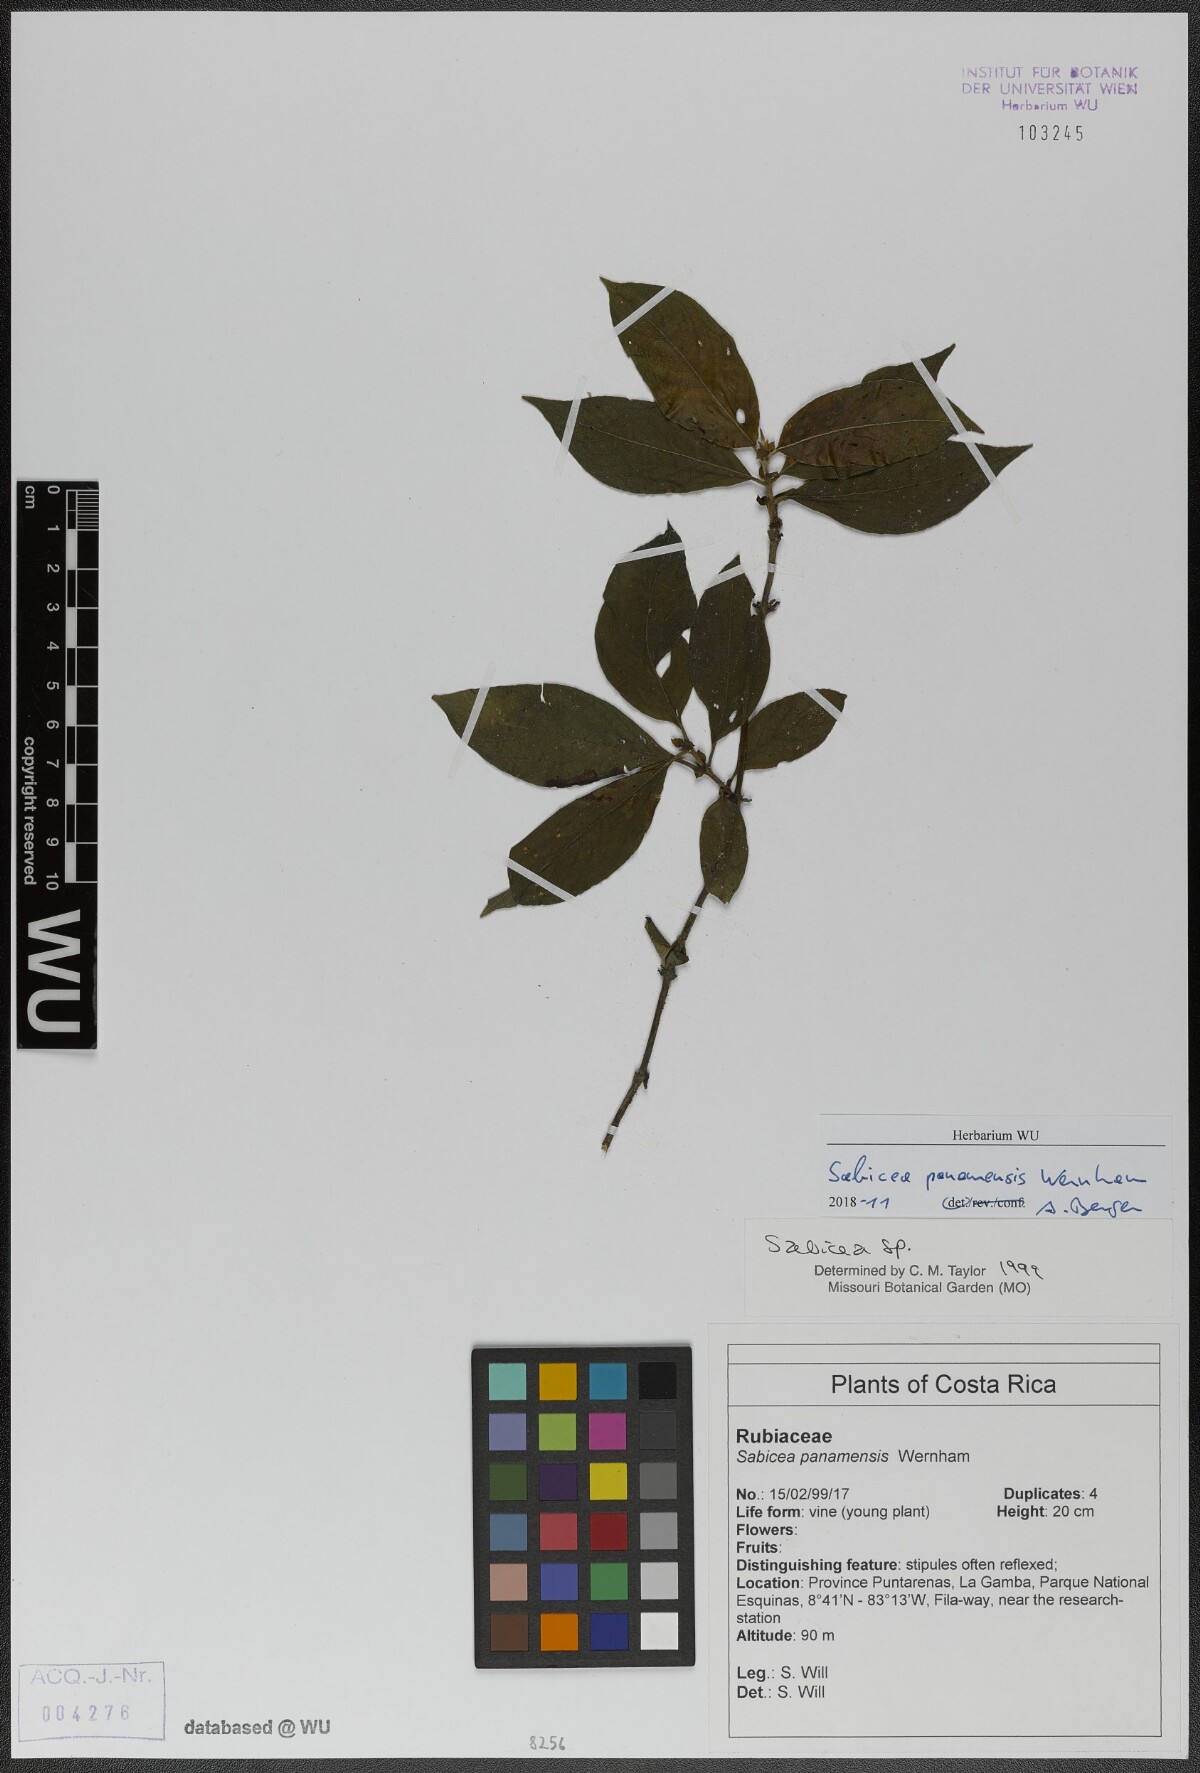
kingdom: Plantae
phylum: Tracheophyta
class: Magnoliopsida
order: Gentianales
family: Rubiaceae
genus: Sabicea
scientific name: Sabicea panamensis
